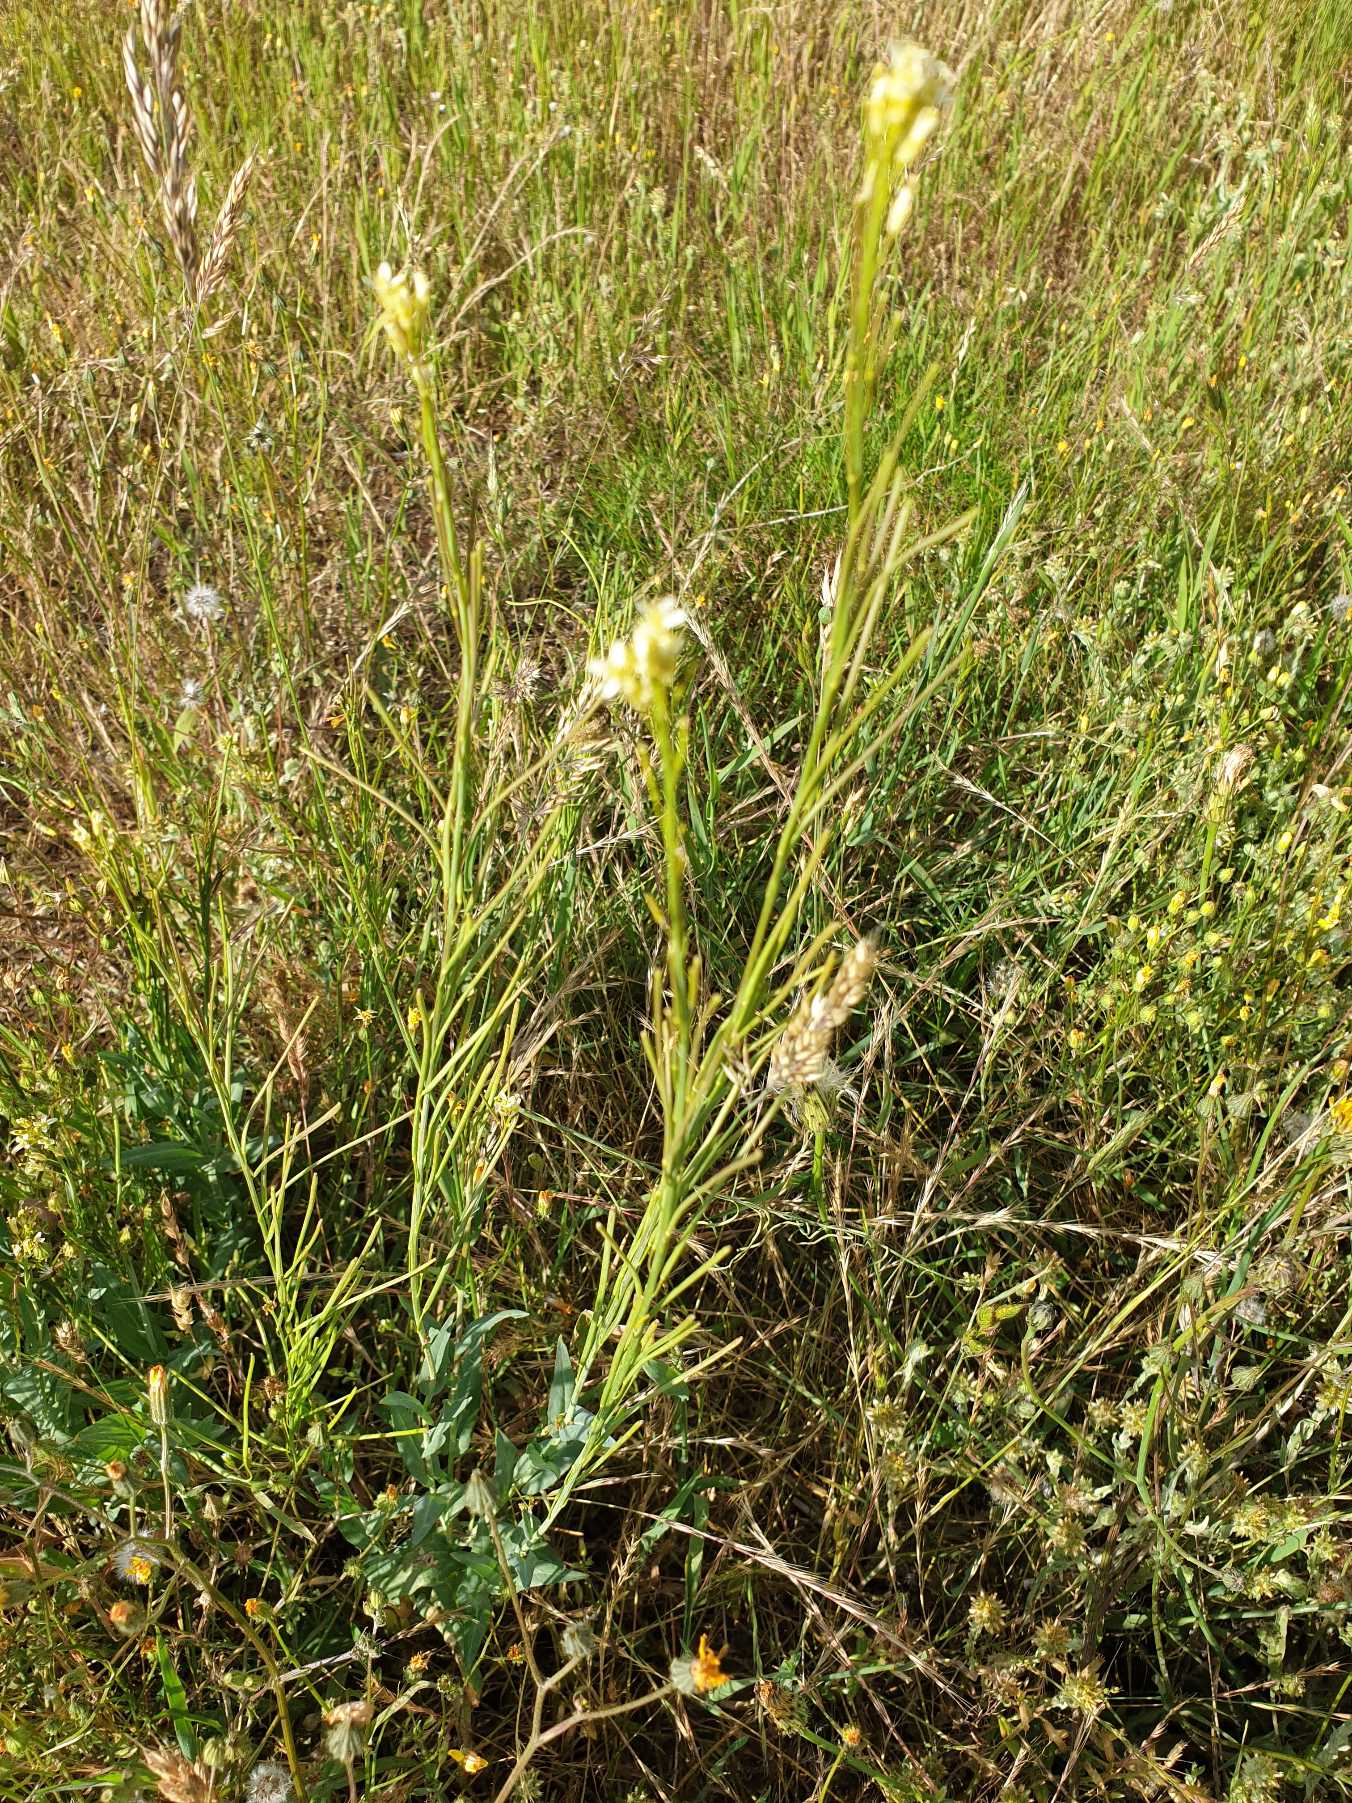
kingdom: Plantae
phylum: Tracheophyta
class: Magnoliopsida
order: Brassicales
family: Brassicaceae
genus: Turritis
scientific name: Turritis glabra
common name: Tårnurt
